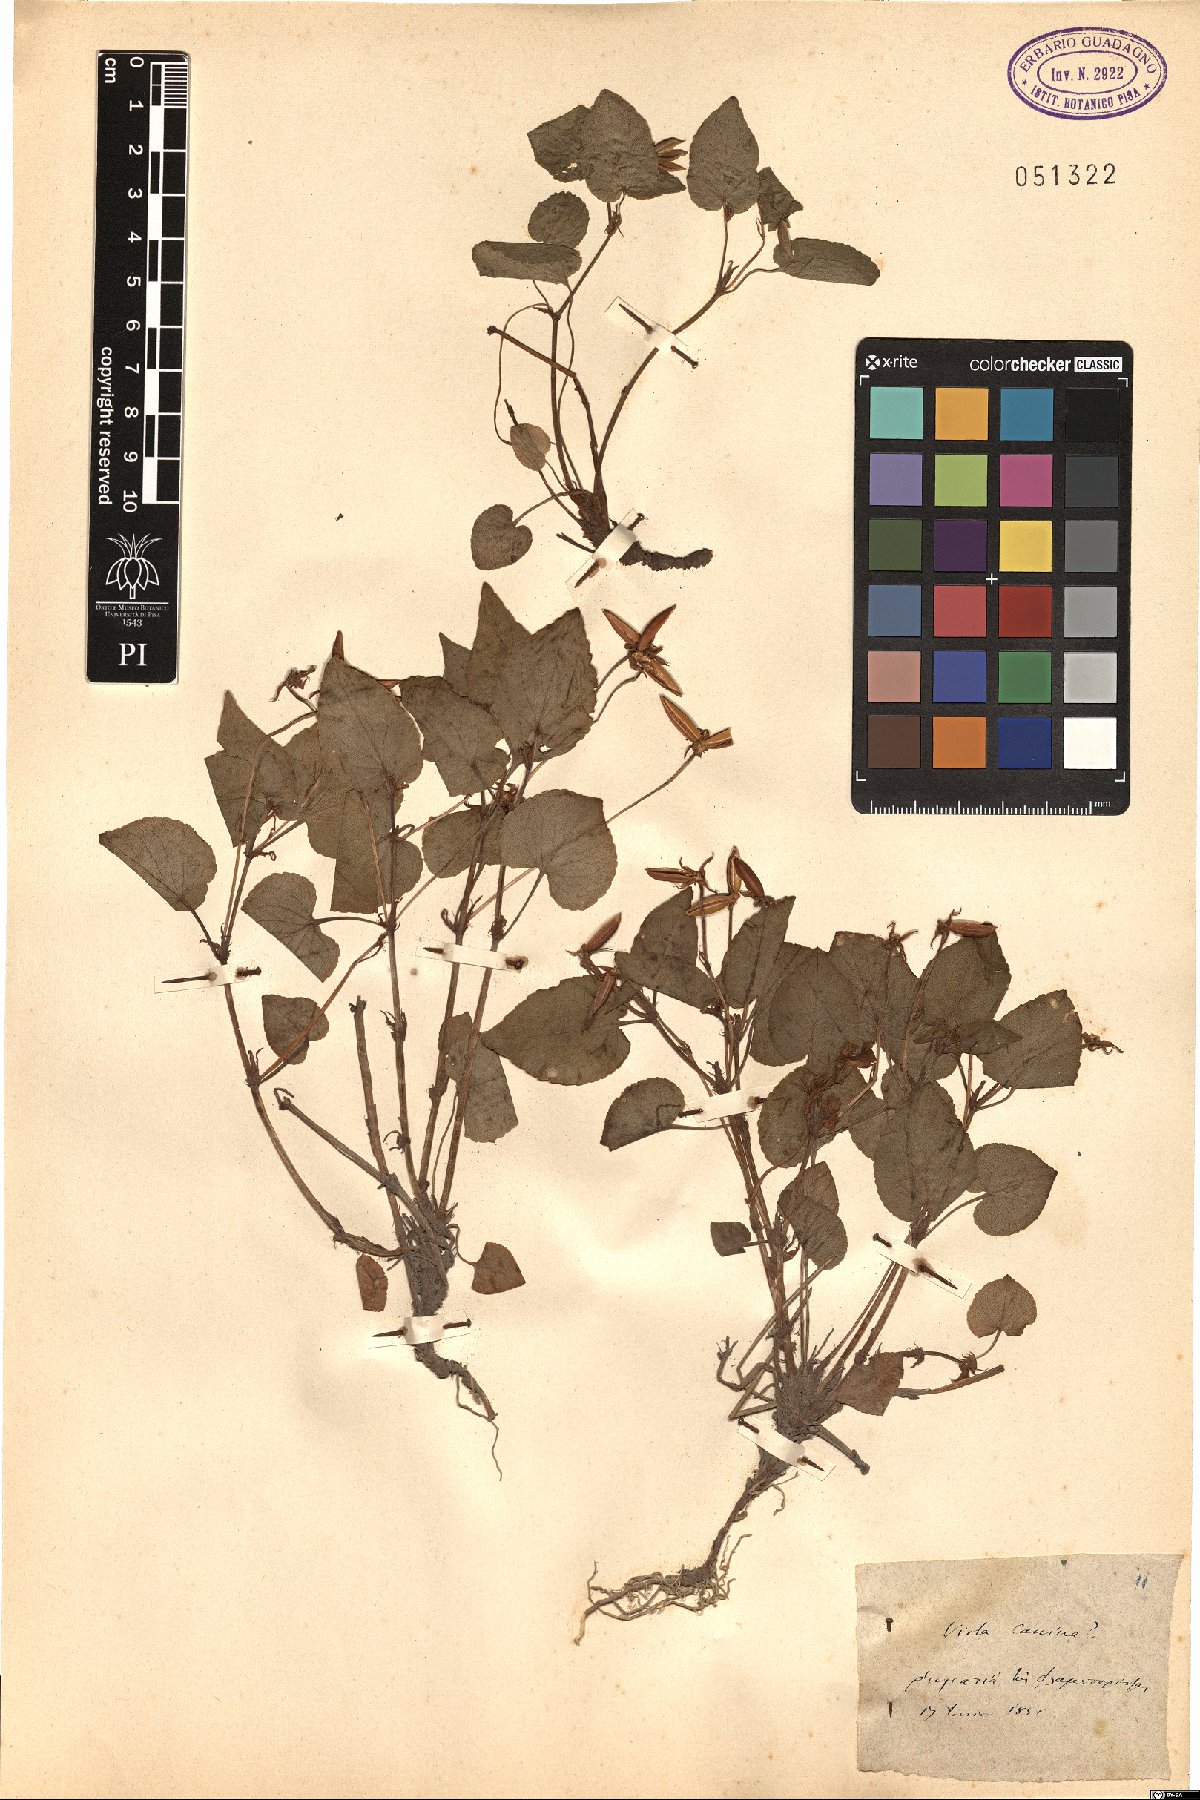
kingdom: Plantae
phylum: Tracheophyta
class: Magnoliopsida
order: Malpighiales
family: Violaceae
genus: Viola
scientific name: Viola canina
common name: Heath dog-violet
